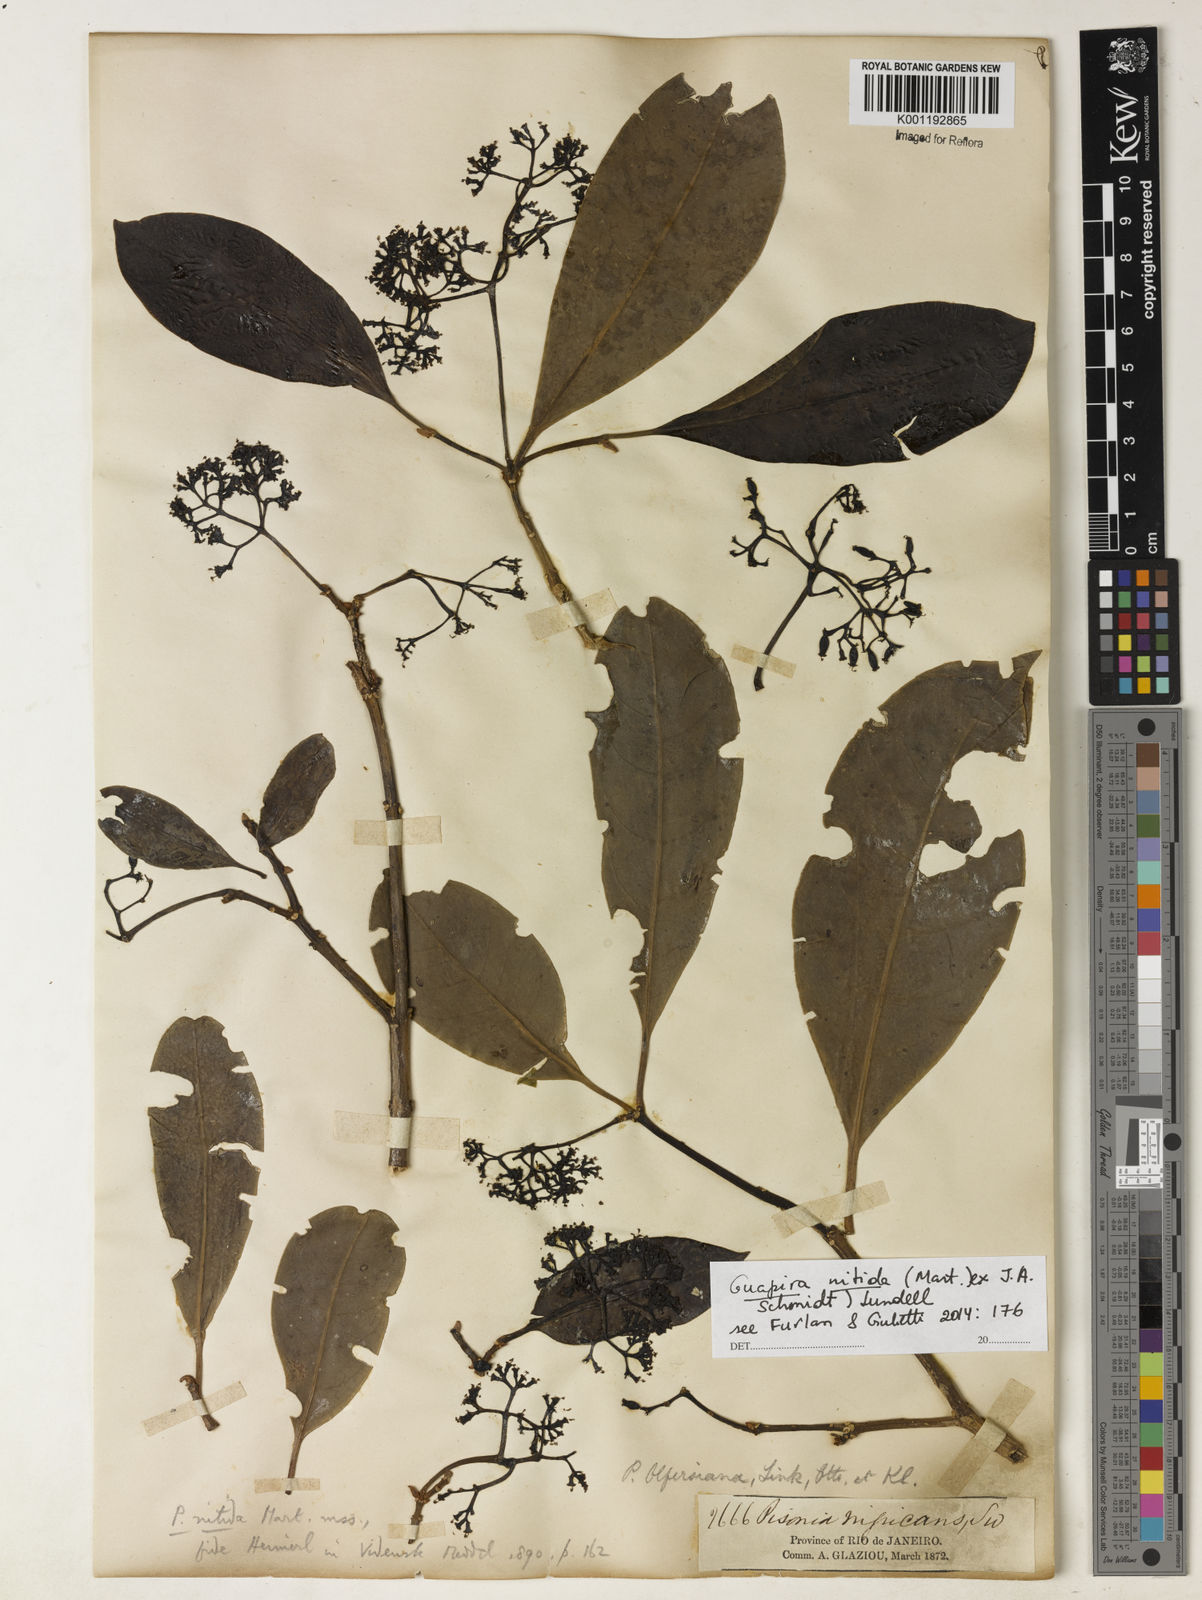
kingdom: Plantae
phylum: Tracheophyta
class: Magnoliopsida
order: Caryophyllales
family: Nyctaginaceae
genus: Guapira
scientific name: Guapira nitida
